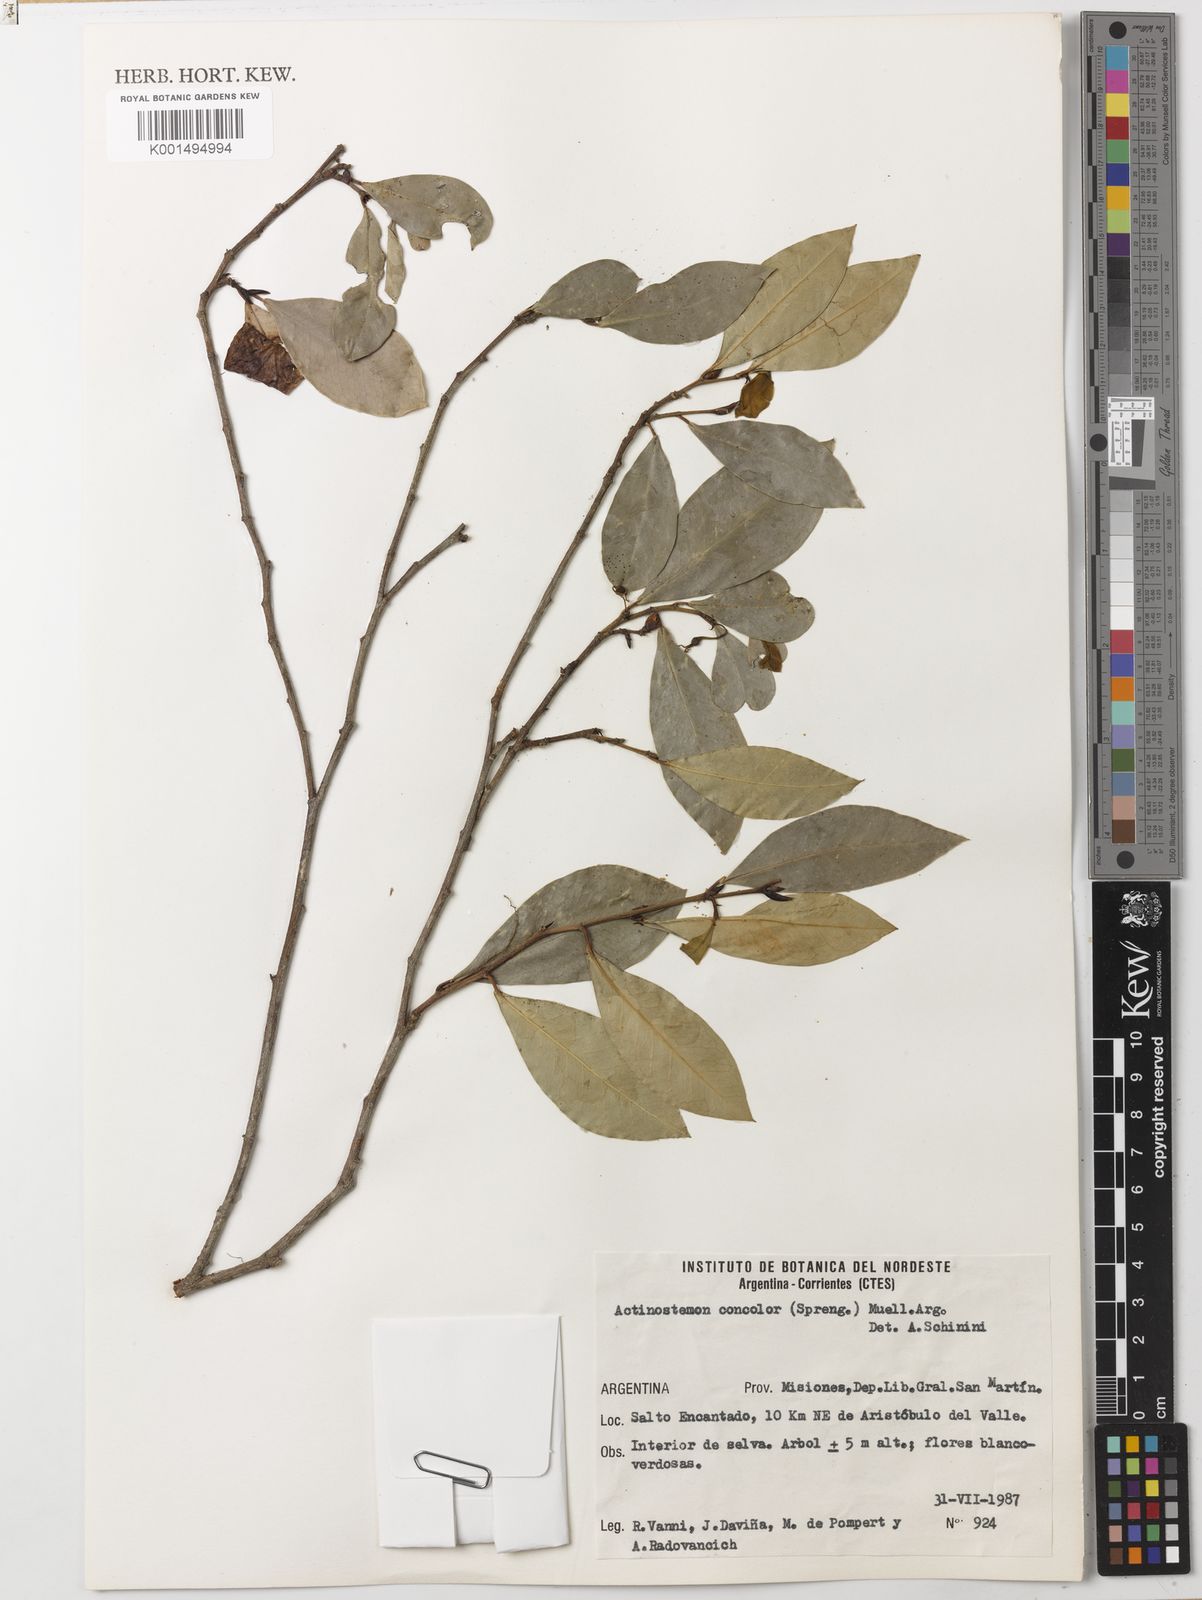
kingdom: Plantae
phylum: Tracheophyta
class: Magnoliopsida
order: Malpighiales
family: Euphorbiaceae
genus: Actinostemon
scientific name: Actinostemon concolor
